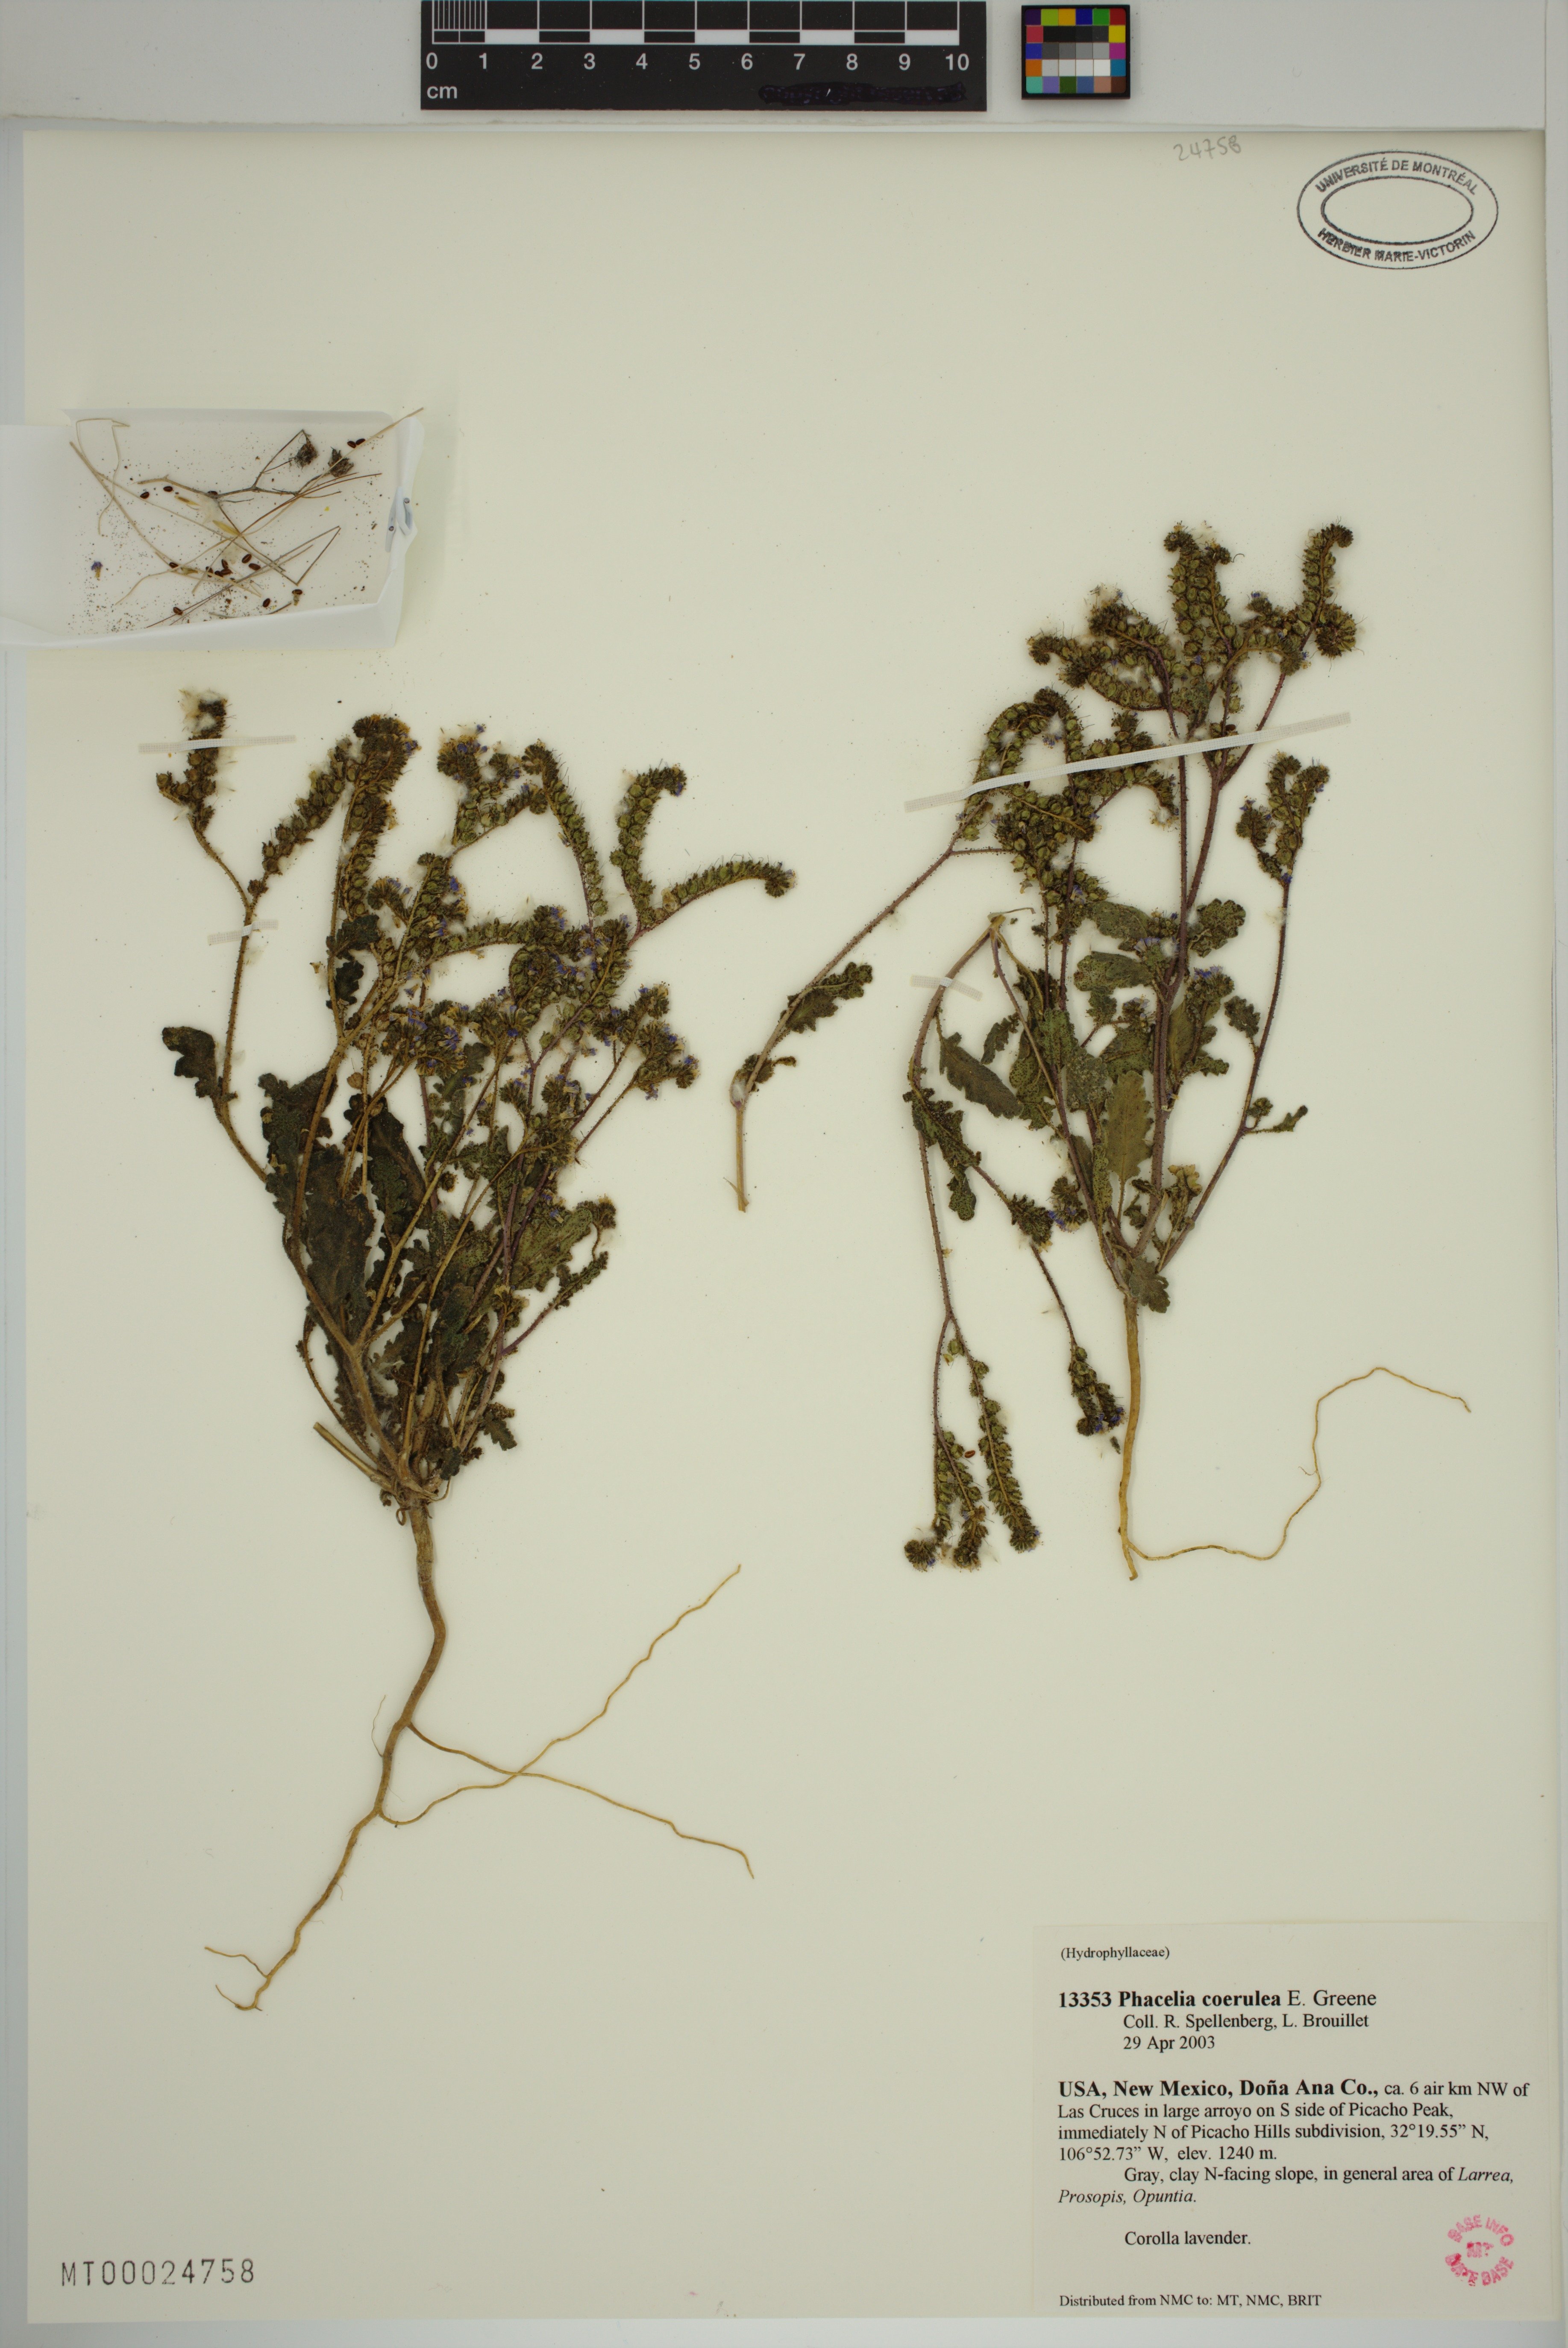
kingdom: Plantae
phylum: Tracheophyta
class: Magnoliopsida
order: Boraginales
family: Hydrophyllaceae
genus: Phacelia
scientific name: Phacelia coerulea
